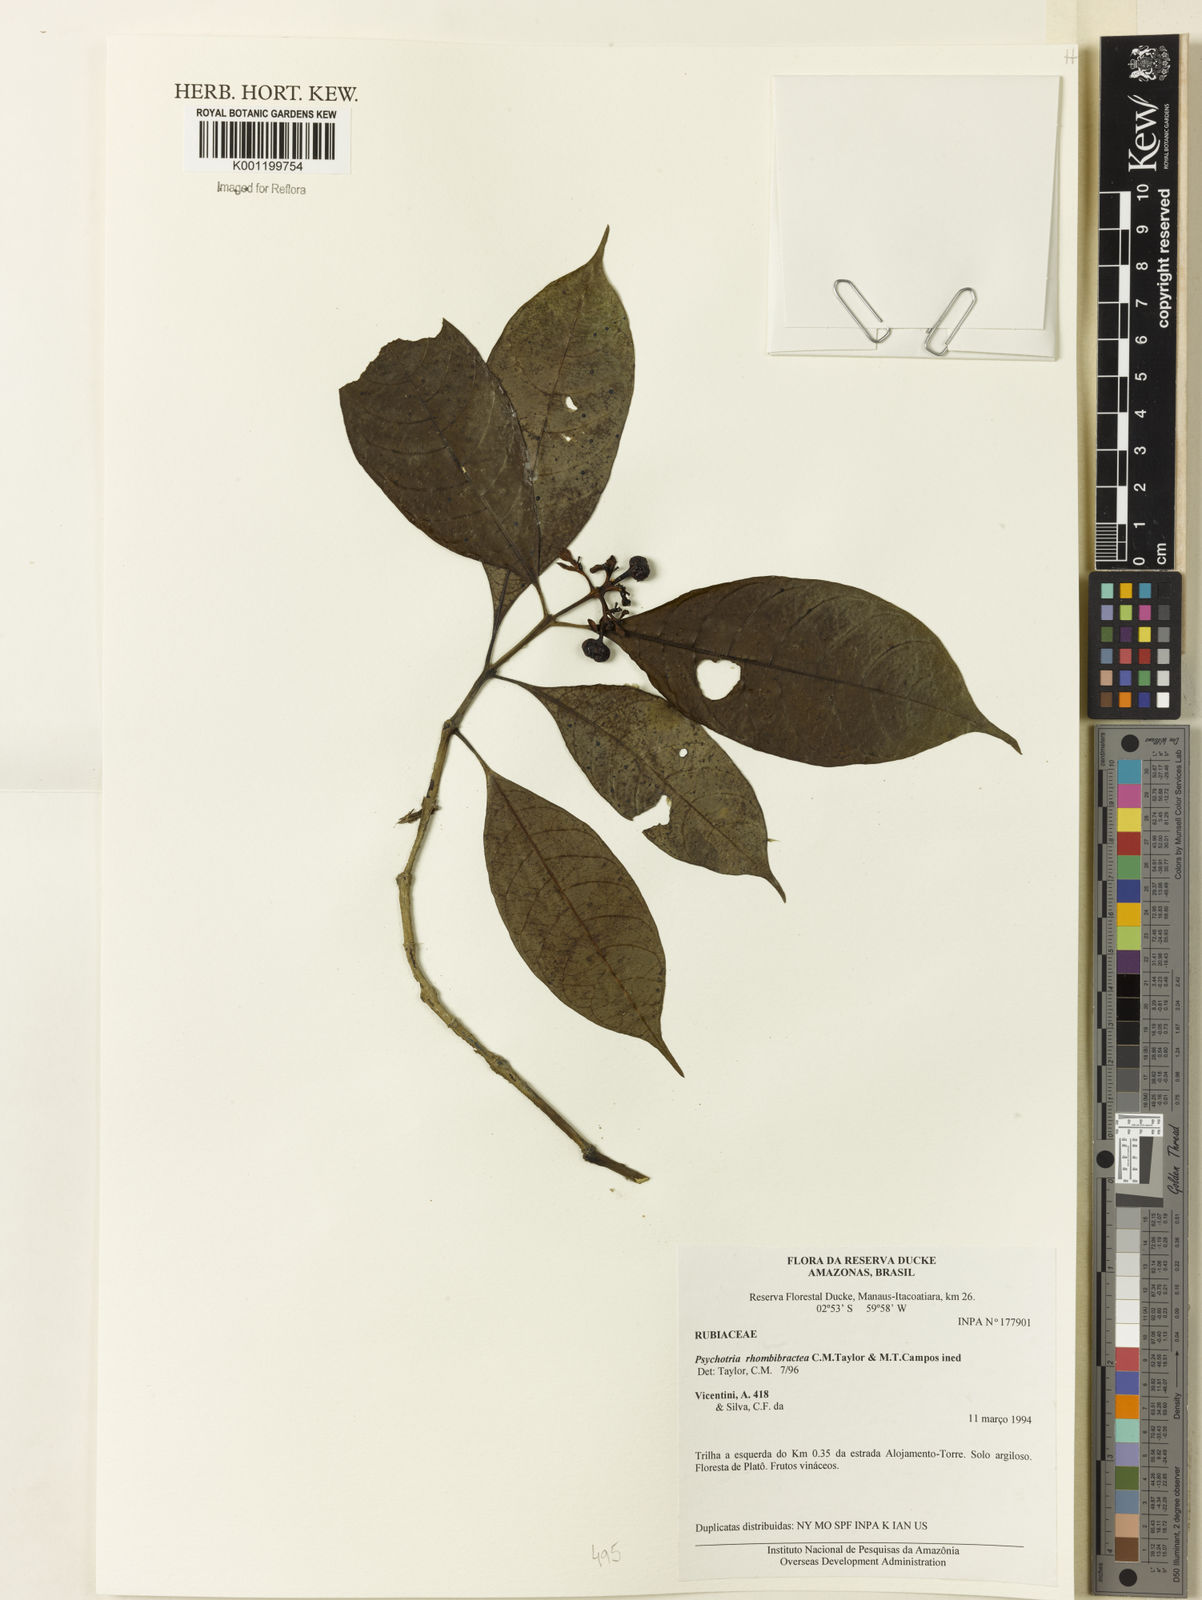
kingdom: Plantae
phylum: Tracheophyta
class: Magnoliopsida
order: Gentianales
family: Rubiaceae
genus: Psychotria
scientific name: Psychotria
